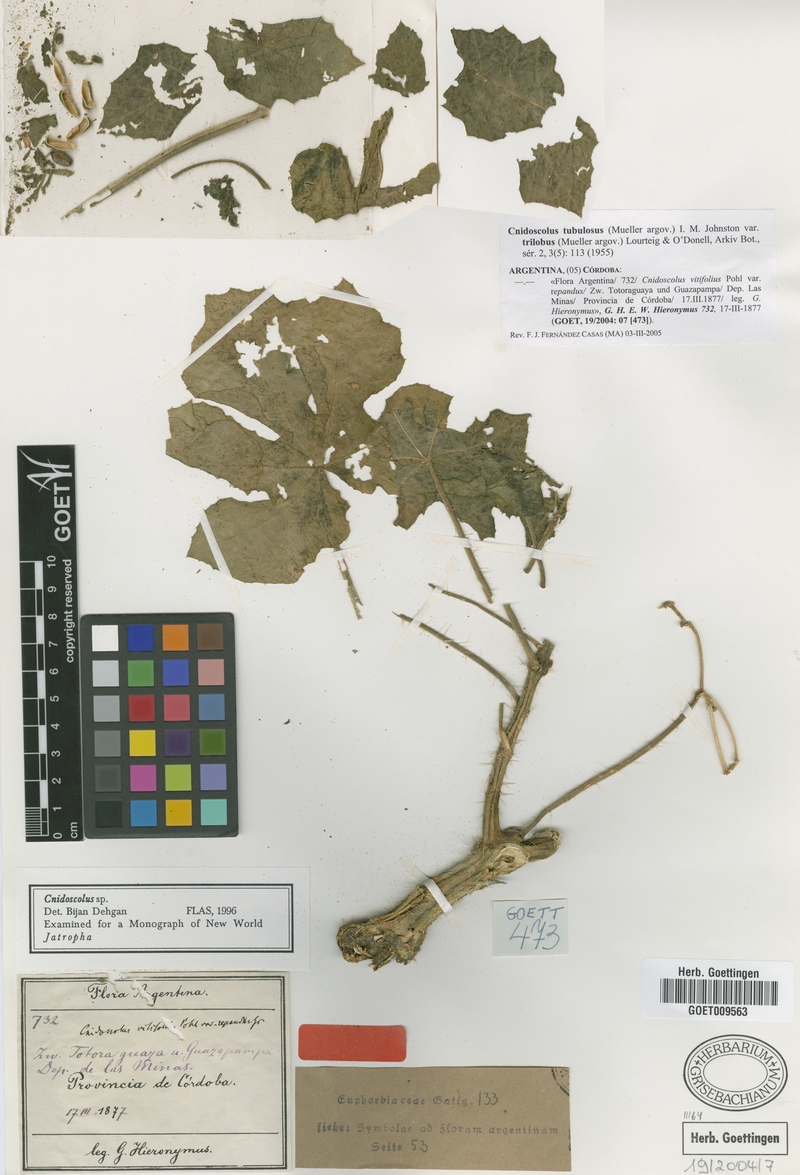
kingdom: Plantae
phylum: Tracheophyta
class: Magnoliopsida
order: Malpighiales
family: Euphorbiaceae
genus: Cnidoscolus
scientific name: Cnidoscolus urens
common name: Bull-nettle
